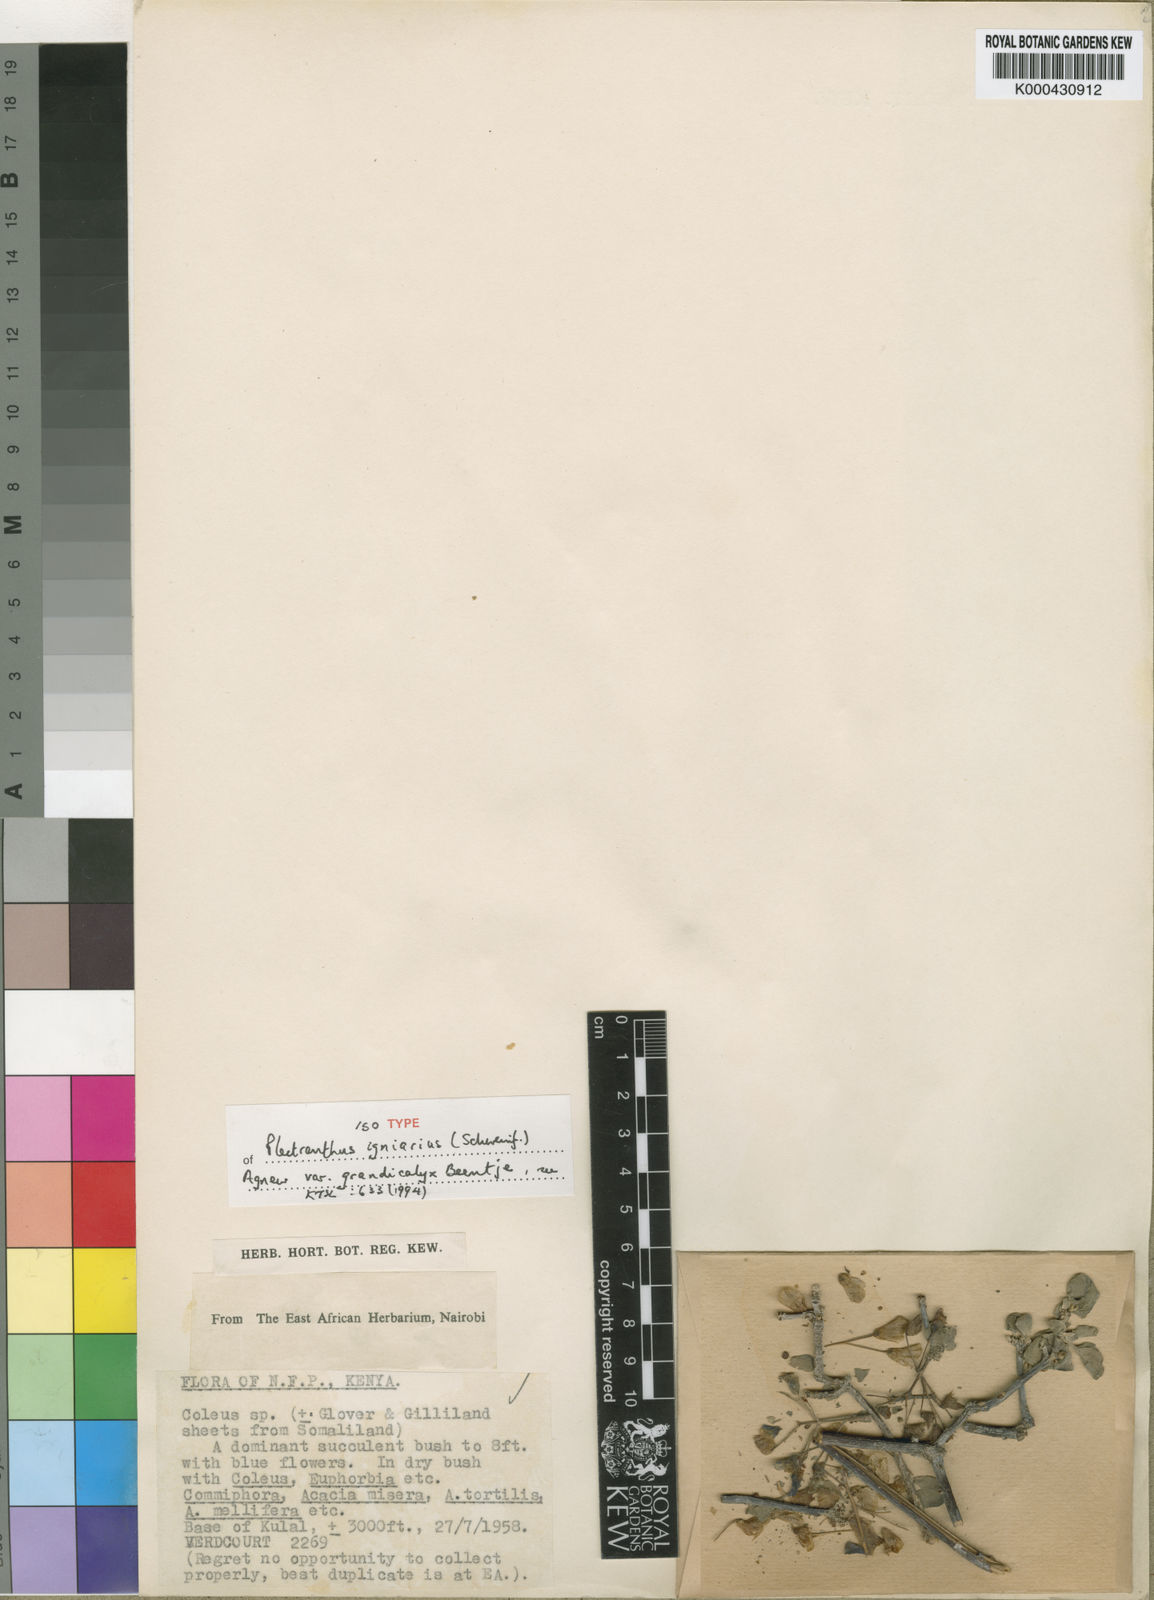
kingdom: Plantae
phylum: Tracheophyta
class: Magnoliopsida
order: Lamiales
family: Lamiaceae
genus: Coleus
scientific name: Coleus igniarius
